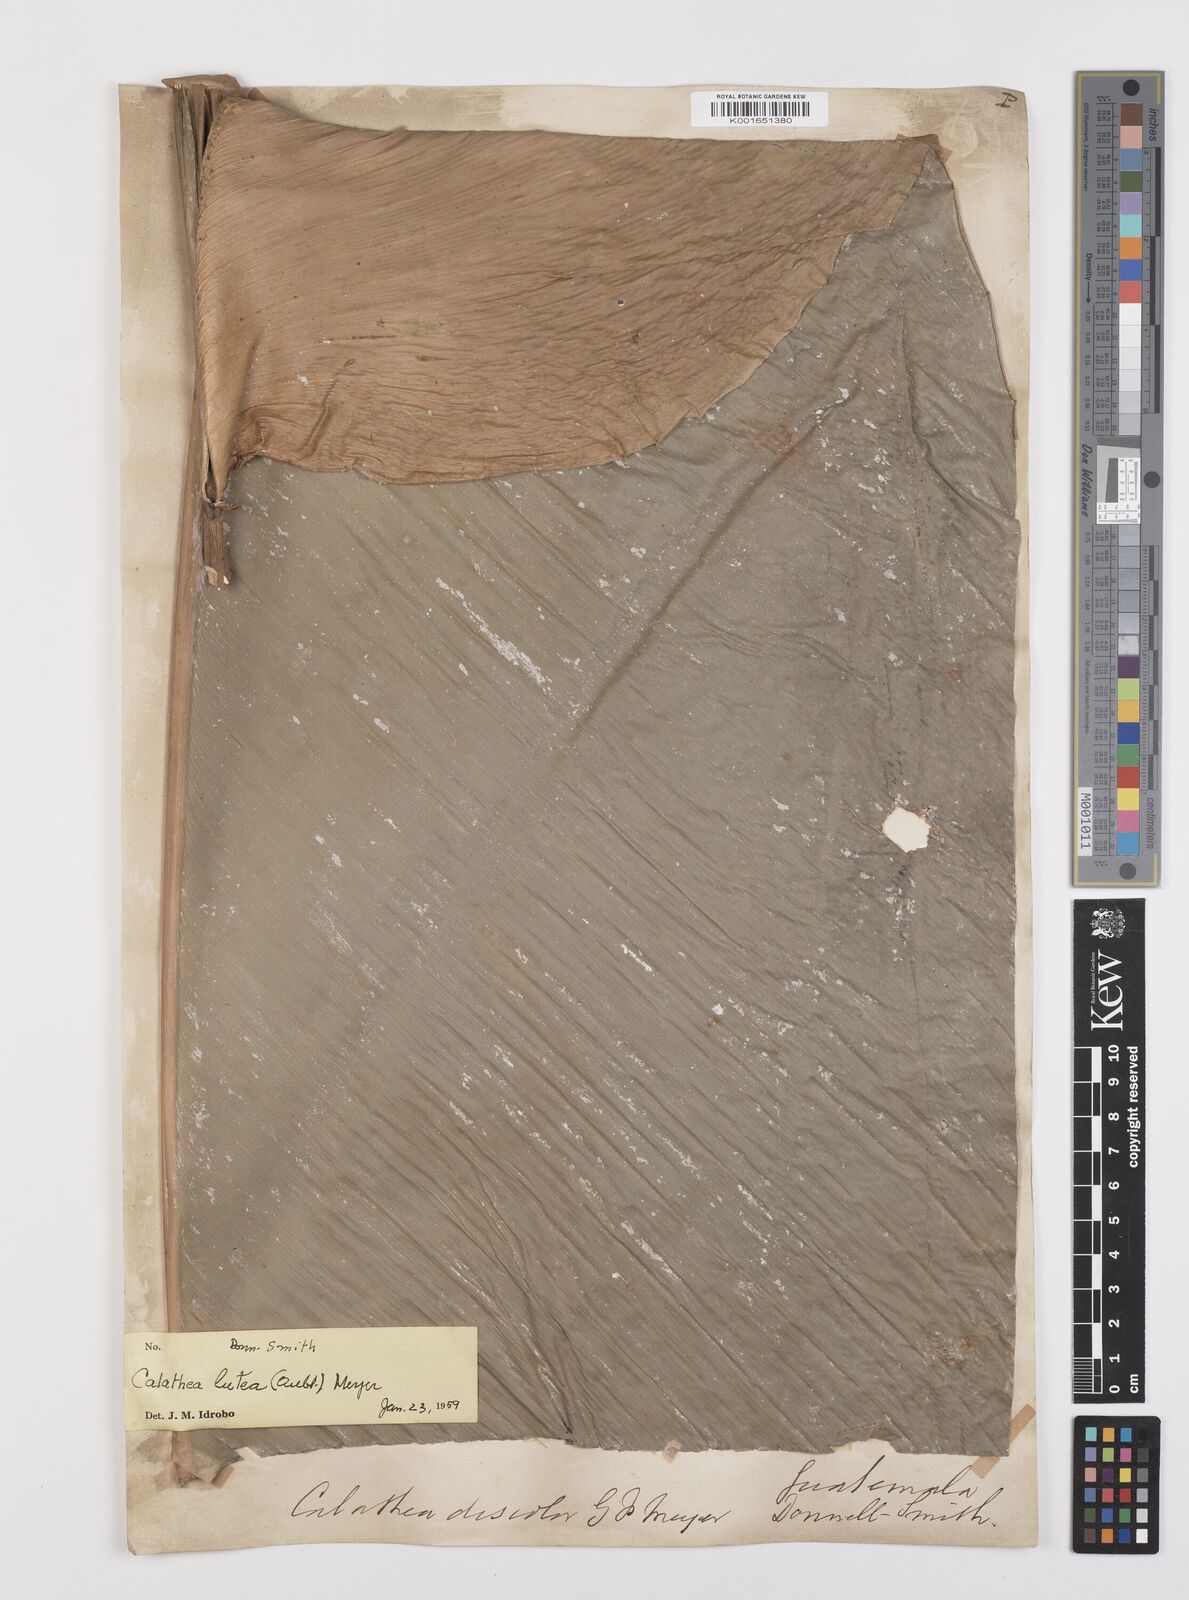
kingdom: Plantae
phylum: Tracheophyta
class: Liliopsida
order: Zingiberales
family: Marantaceae
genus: Calathea
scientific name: Calathea lutea
